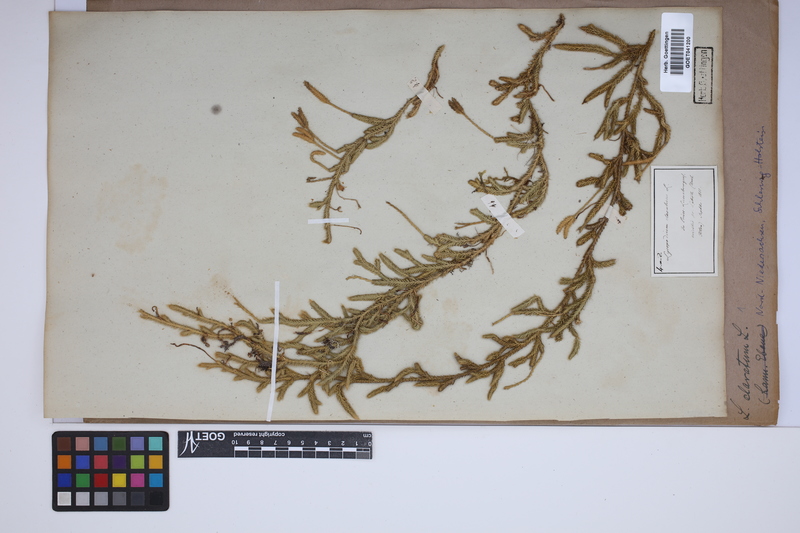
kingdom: Plantae
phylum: Tracheophyta
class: Lycopodiopsida
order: Lycopodiales
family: Lycopodiaceae
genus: Lycopodium
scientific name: Lycopodium clavatum
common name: Stag's-horn clubmoss
